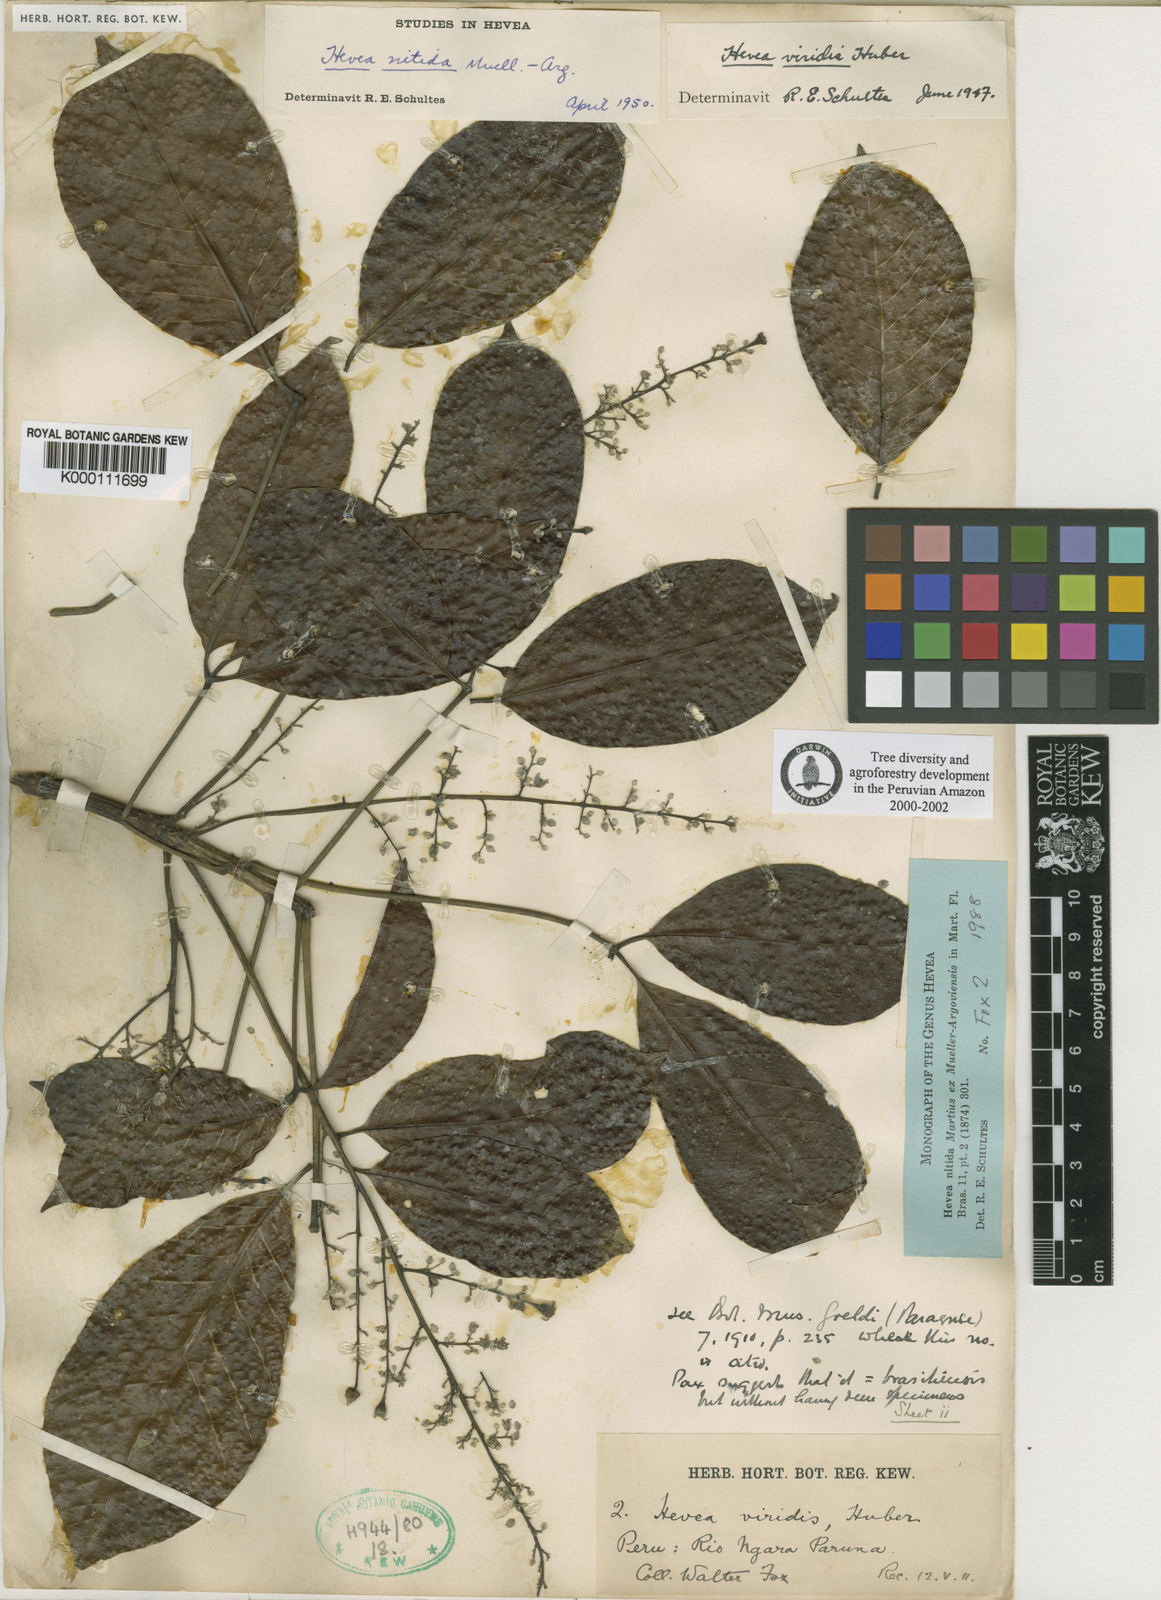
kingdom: Plantae
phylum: Tracheophyta
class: Magnoliopsida
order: Malpighiales
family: Euphorbiaceae
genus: Hevea
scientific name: Hevea nitida
